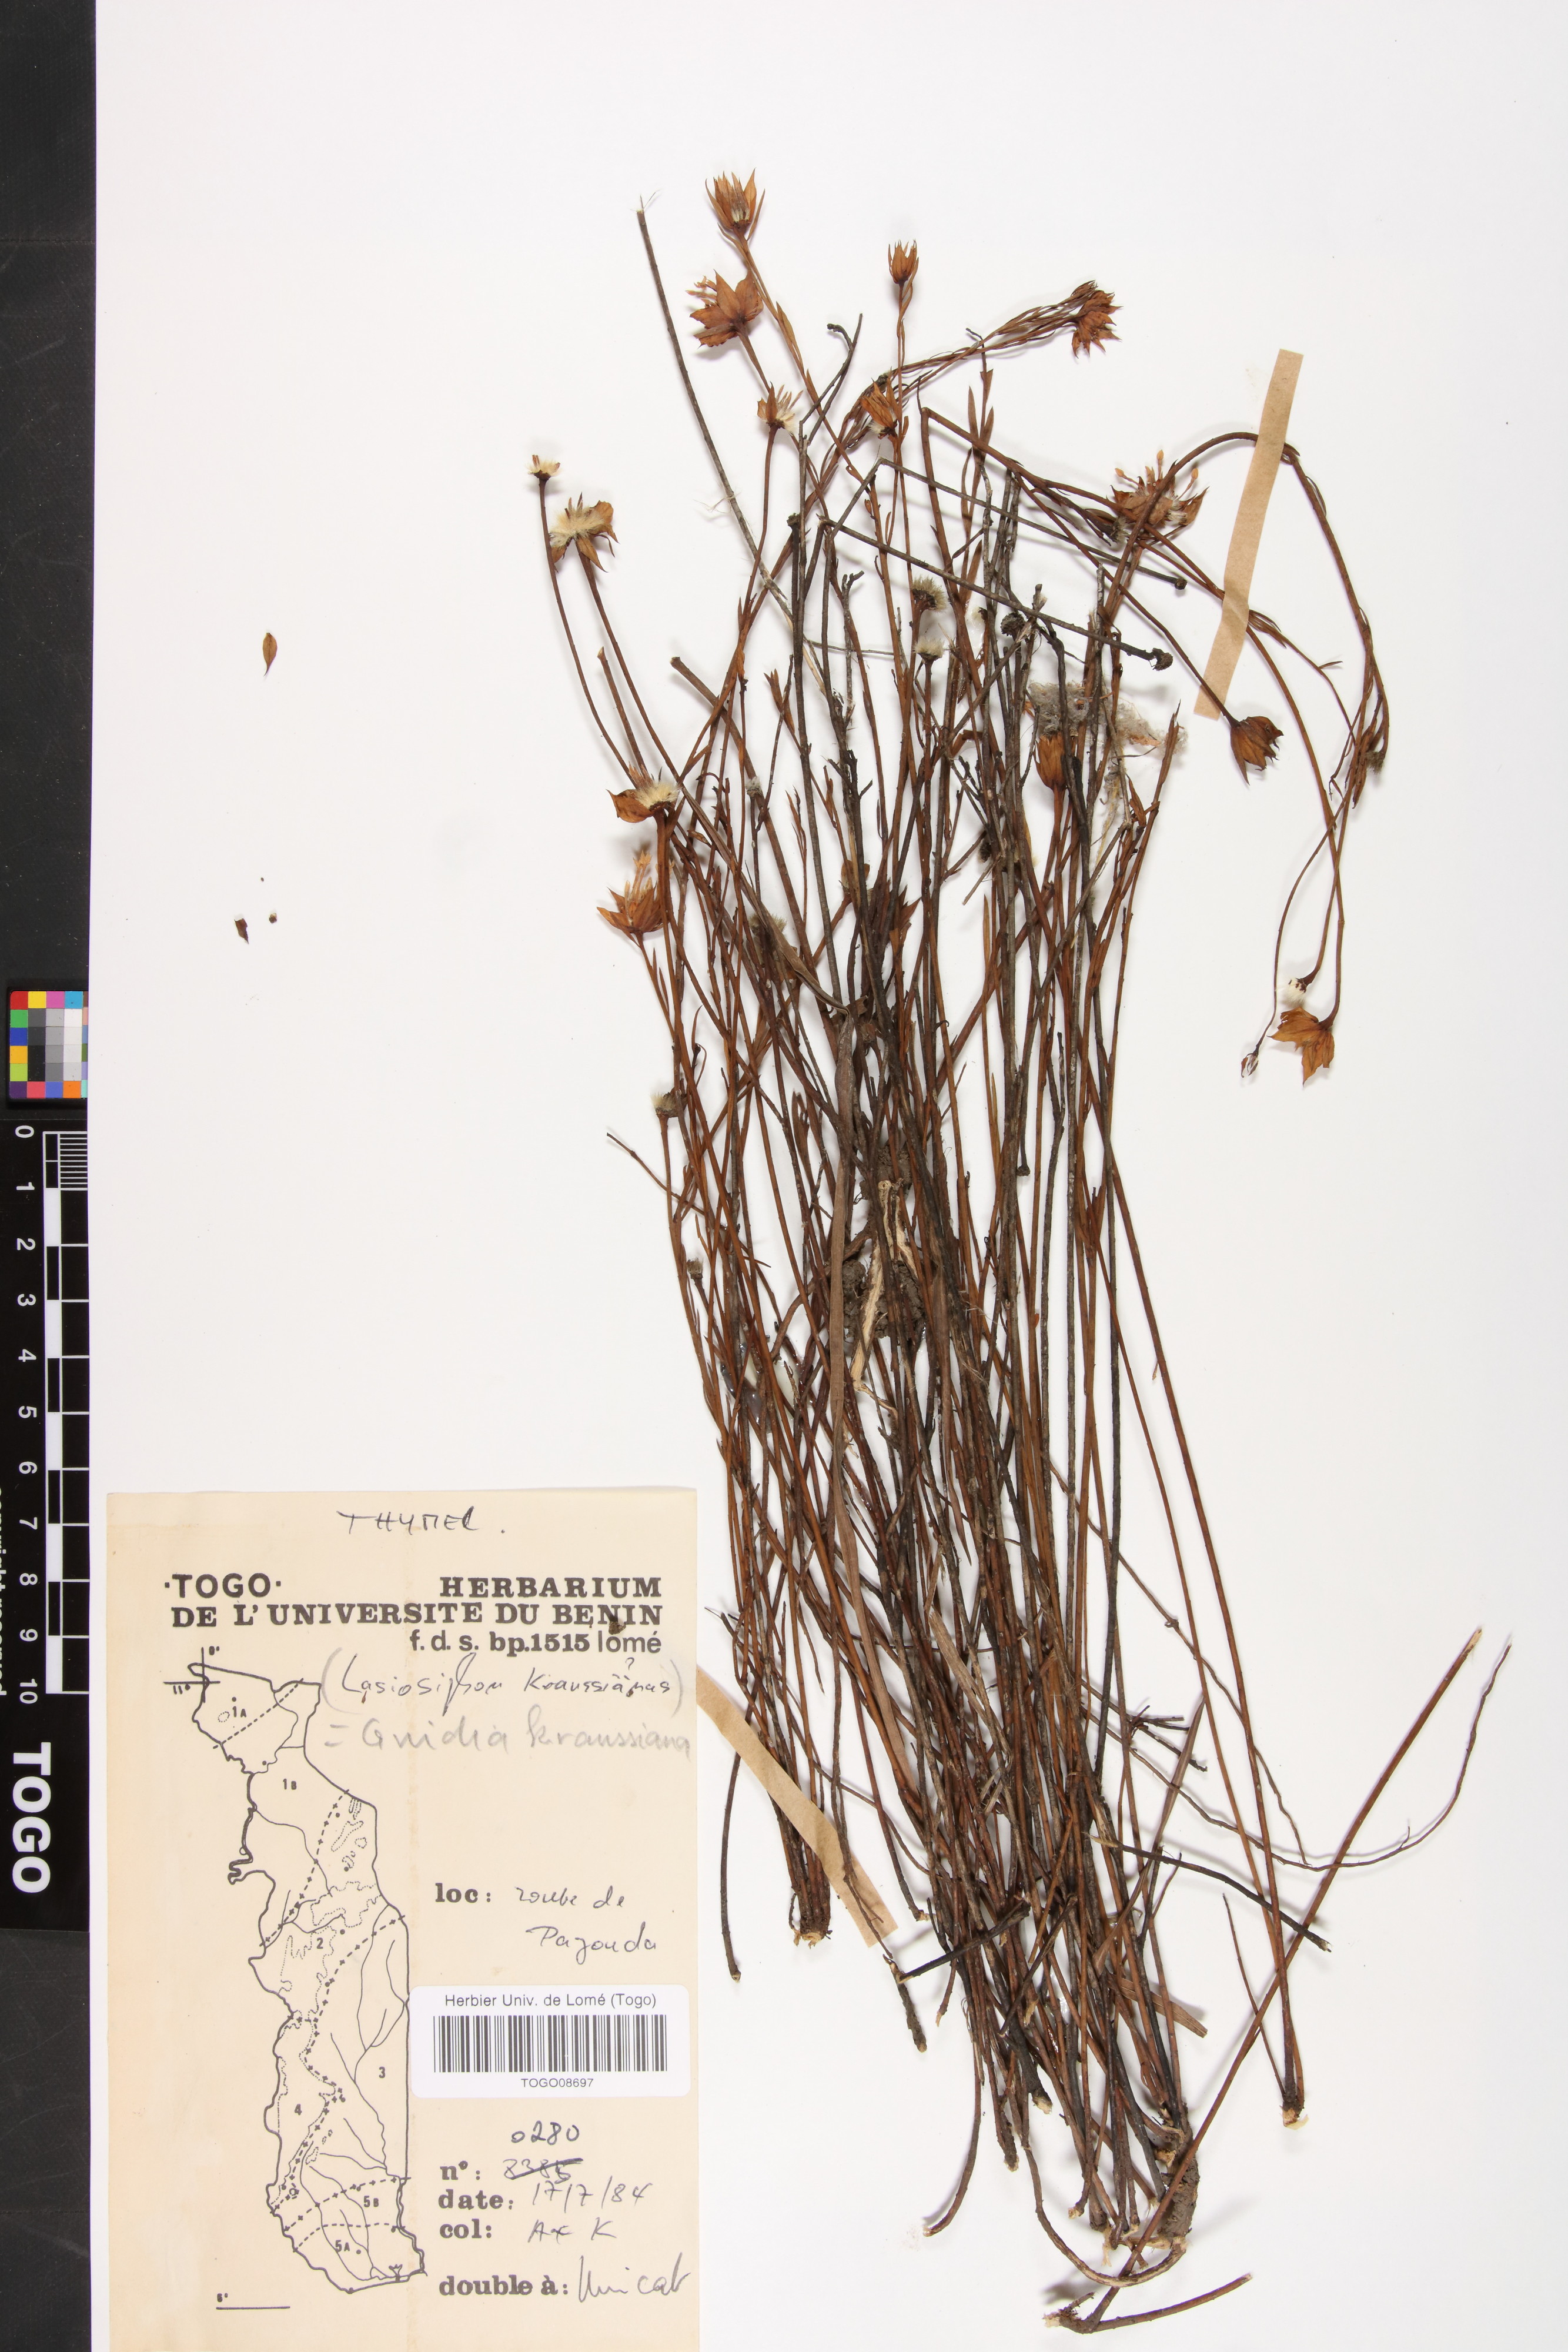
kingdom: Plantae
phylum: Tracheophyta
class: Magnoliopsida
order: Malvales
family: Thymelaeaceae
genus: Dicranolepis
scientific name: Dicranolepis grandiflora
